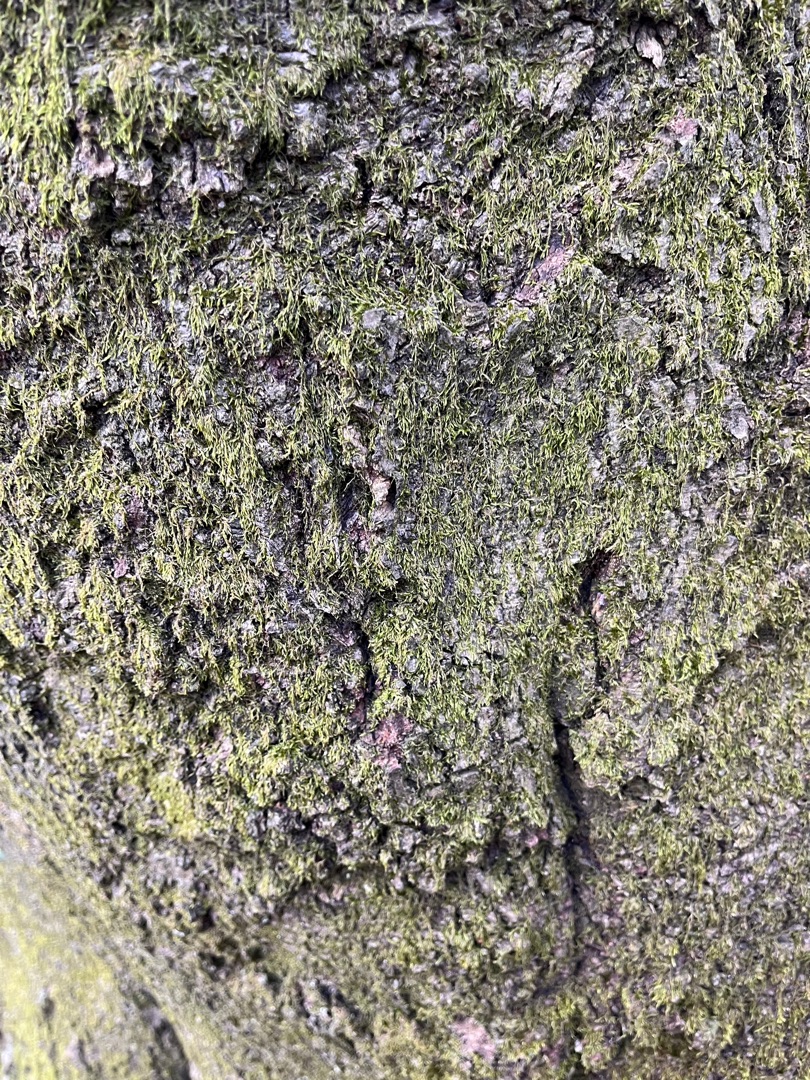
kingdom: Plantae
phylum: Bryophyta
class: Bryopsida
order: Hypnales
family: Hypnaceae
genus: Hypnum
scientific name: Hypnum
